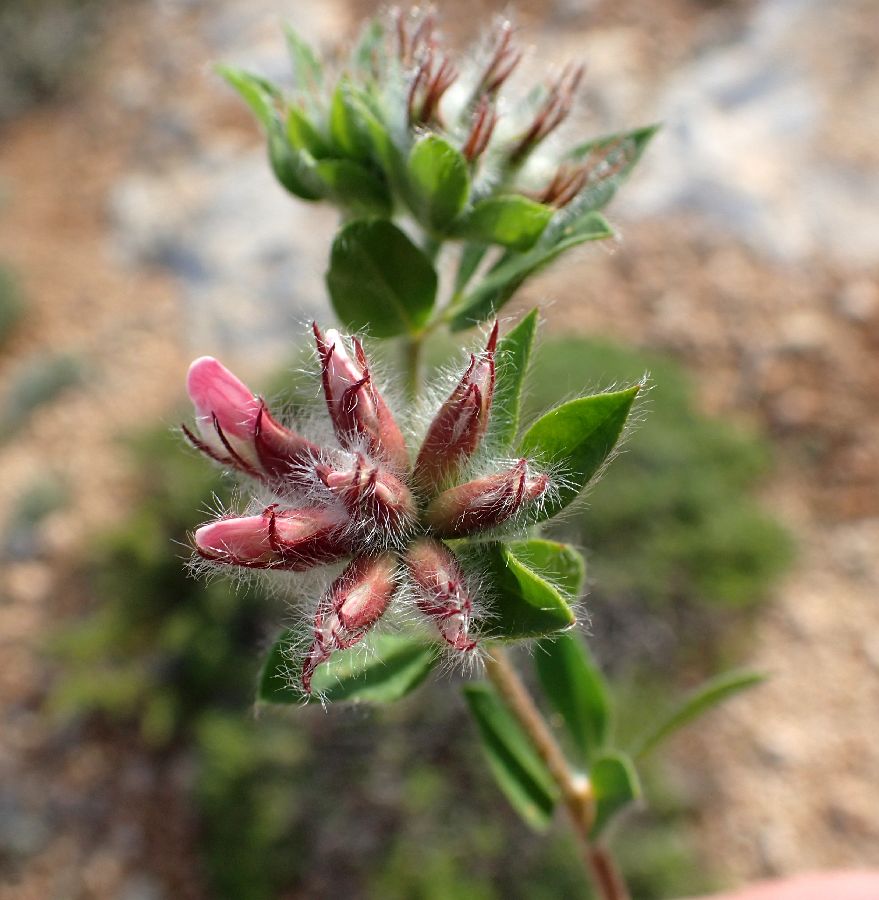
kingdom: Plantae
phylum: Tracheophyta
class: Magnoliopsida
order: Fabales
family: Fabaceae
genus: Lotus
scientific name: Lotus hirsutus
